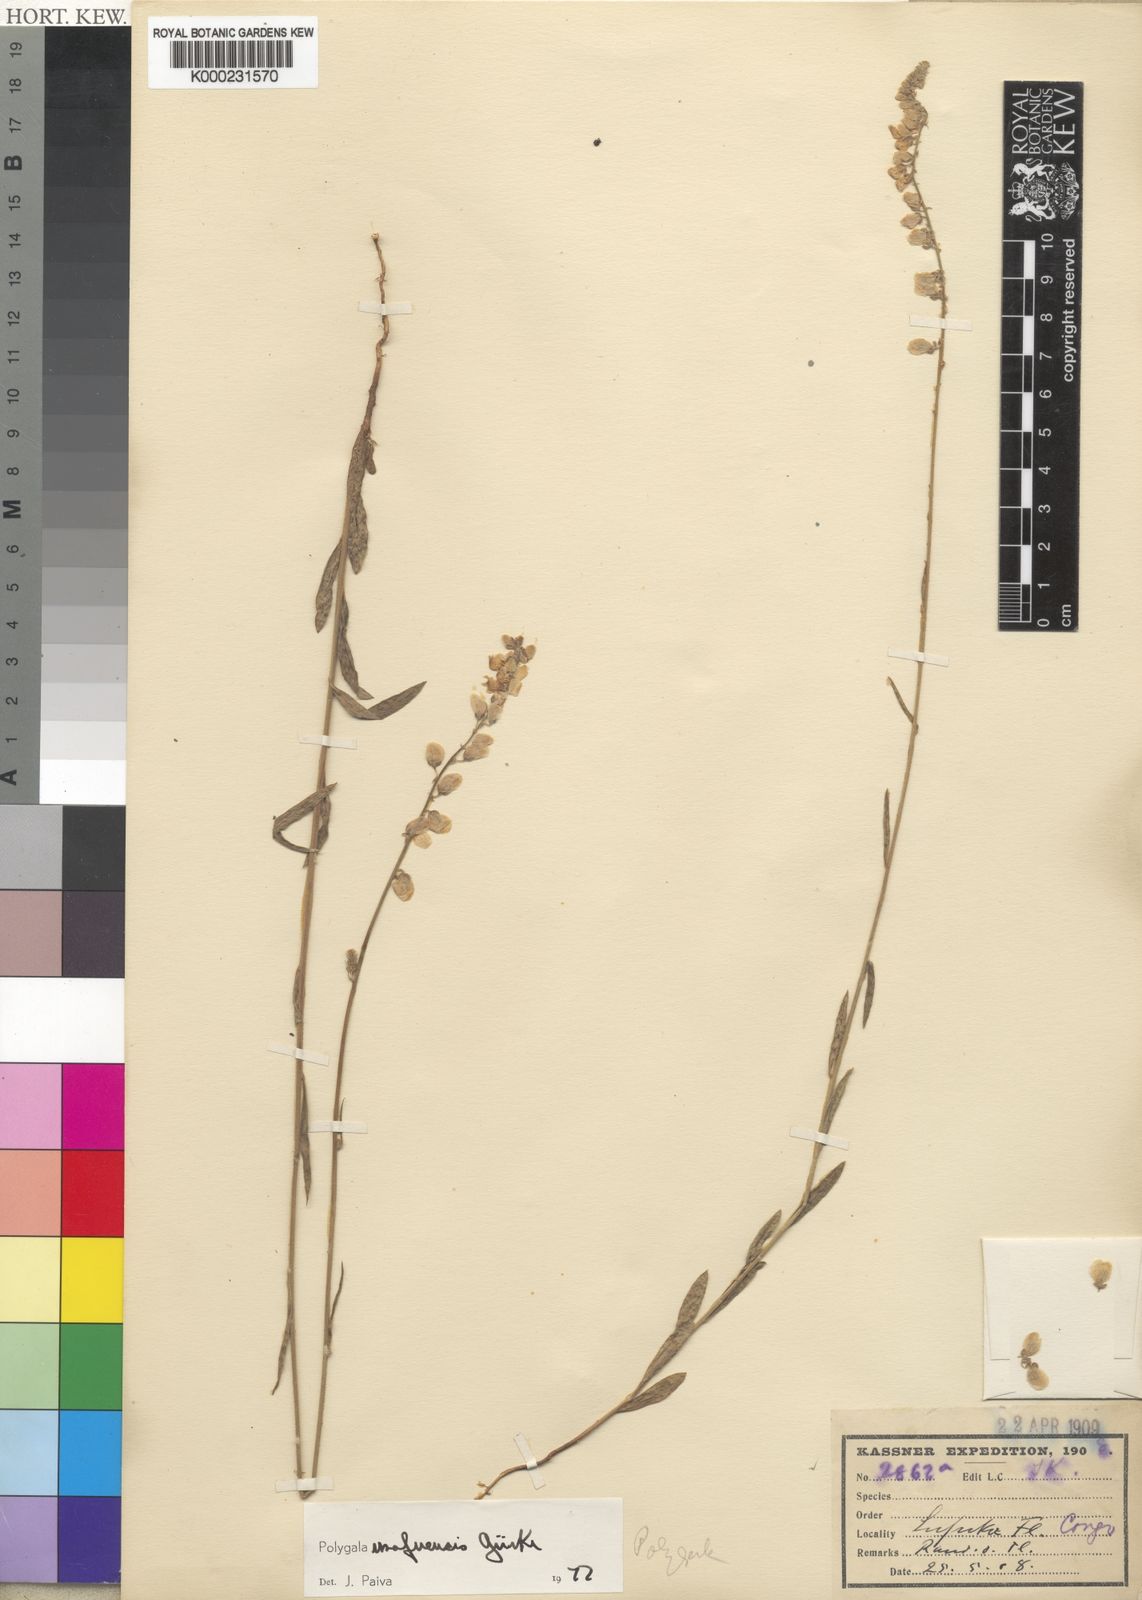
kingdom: Plantae
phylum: Tracheophyta
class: Magnoliopsida
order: Fabales
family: Polygalaceae
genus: Polygala
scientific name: Polygala
